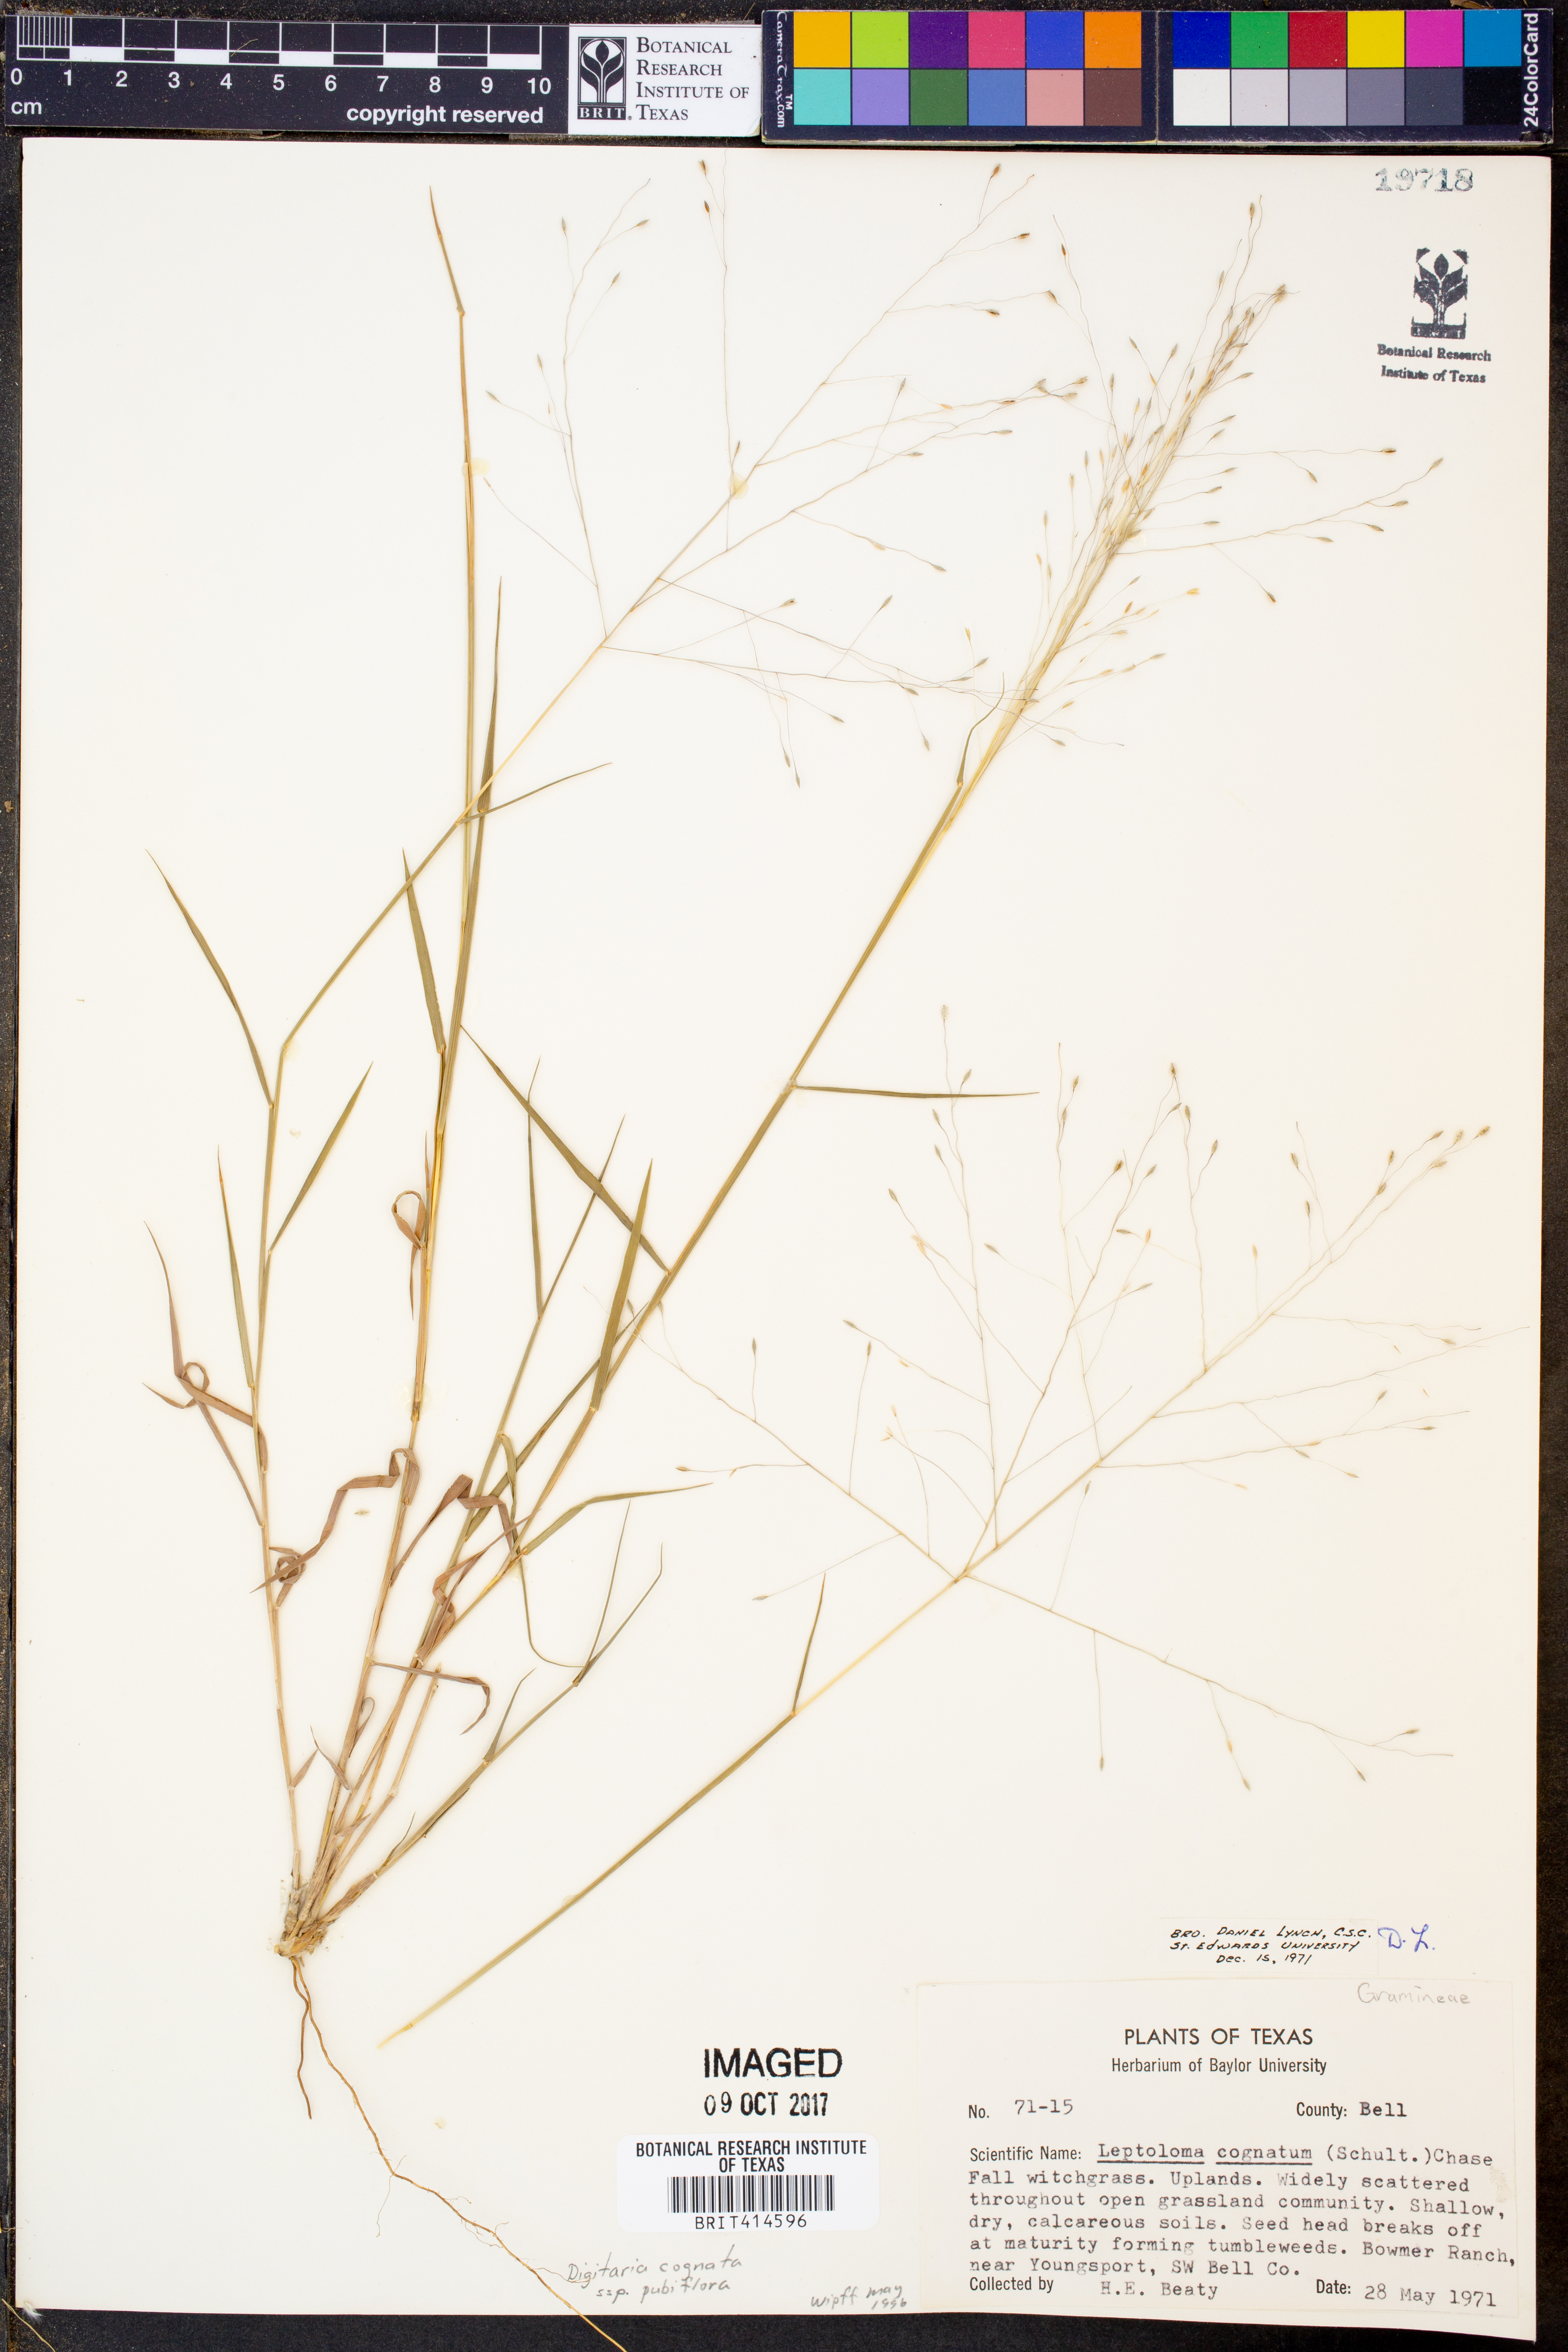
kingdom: Plantae
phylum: Tracheophyta
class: Liliopsida
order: Poales
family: Poaceae
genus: Digitaria
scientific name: Digitaria cognata
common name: Fall witchgrass
